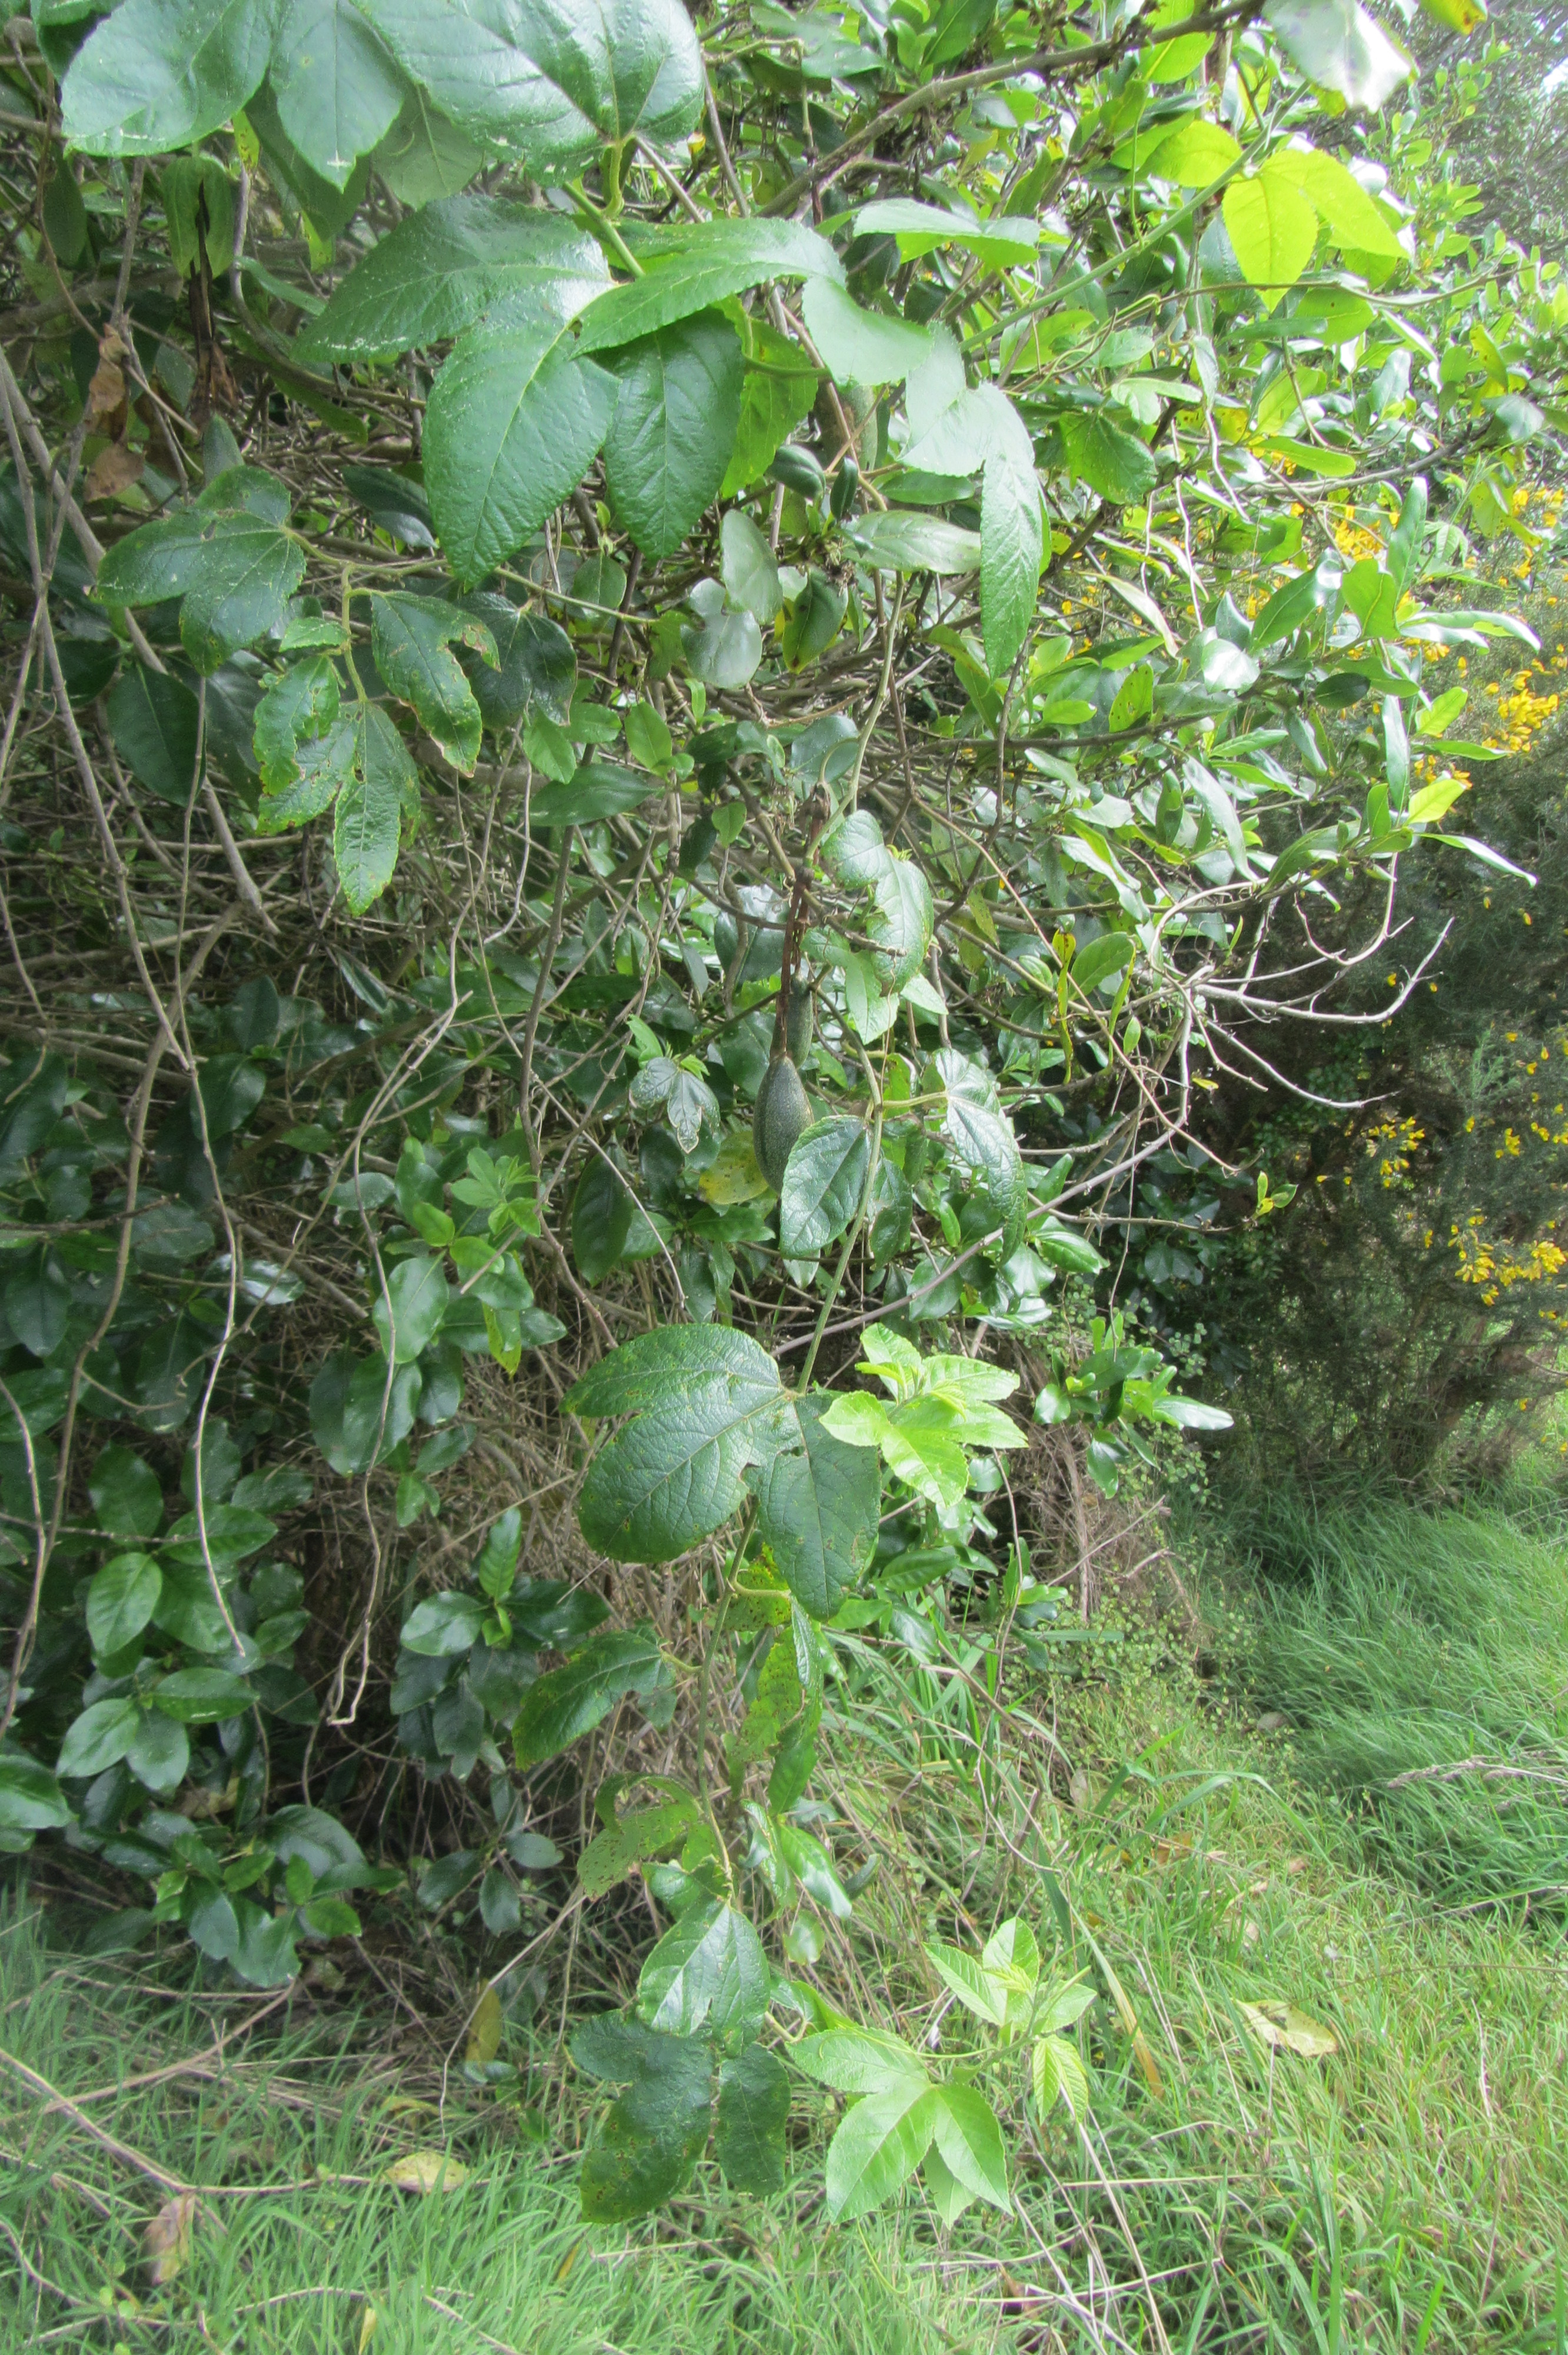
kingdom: Plantae
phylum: Tracheophyta
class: Magnoliopsida
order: Malpighiales
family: Passifloraceae
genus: Passiflora
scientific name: Passiflora tarminiana
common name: Banana poka
